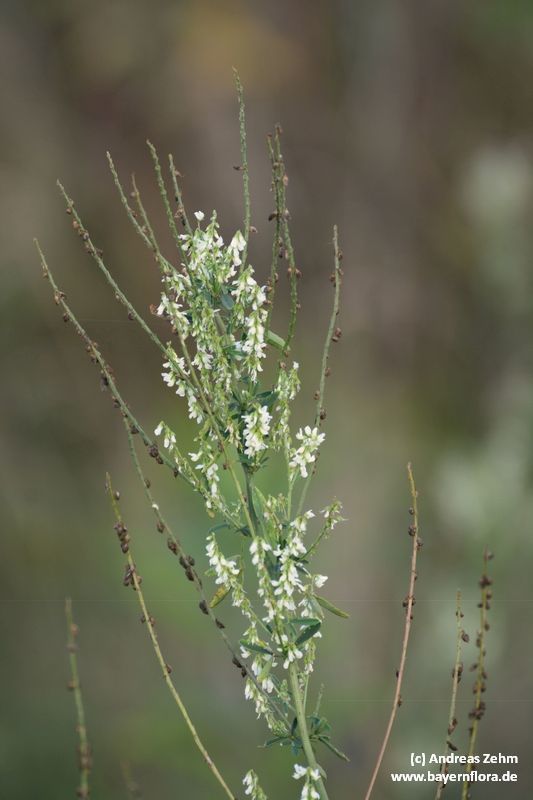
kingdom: Plantae
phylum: Tracheophyta
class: Magnoliopsida
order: Fabales
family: Fabaceae
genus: Melilotus
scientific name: Melilotus albus
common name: White melilot
